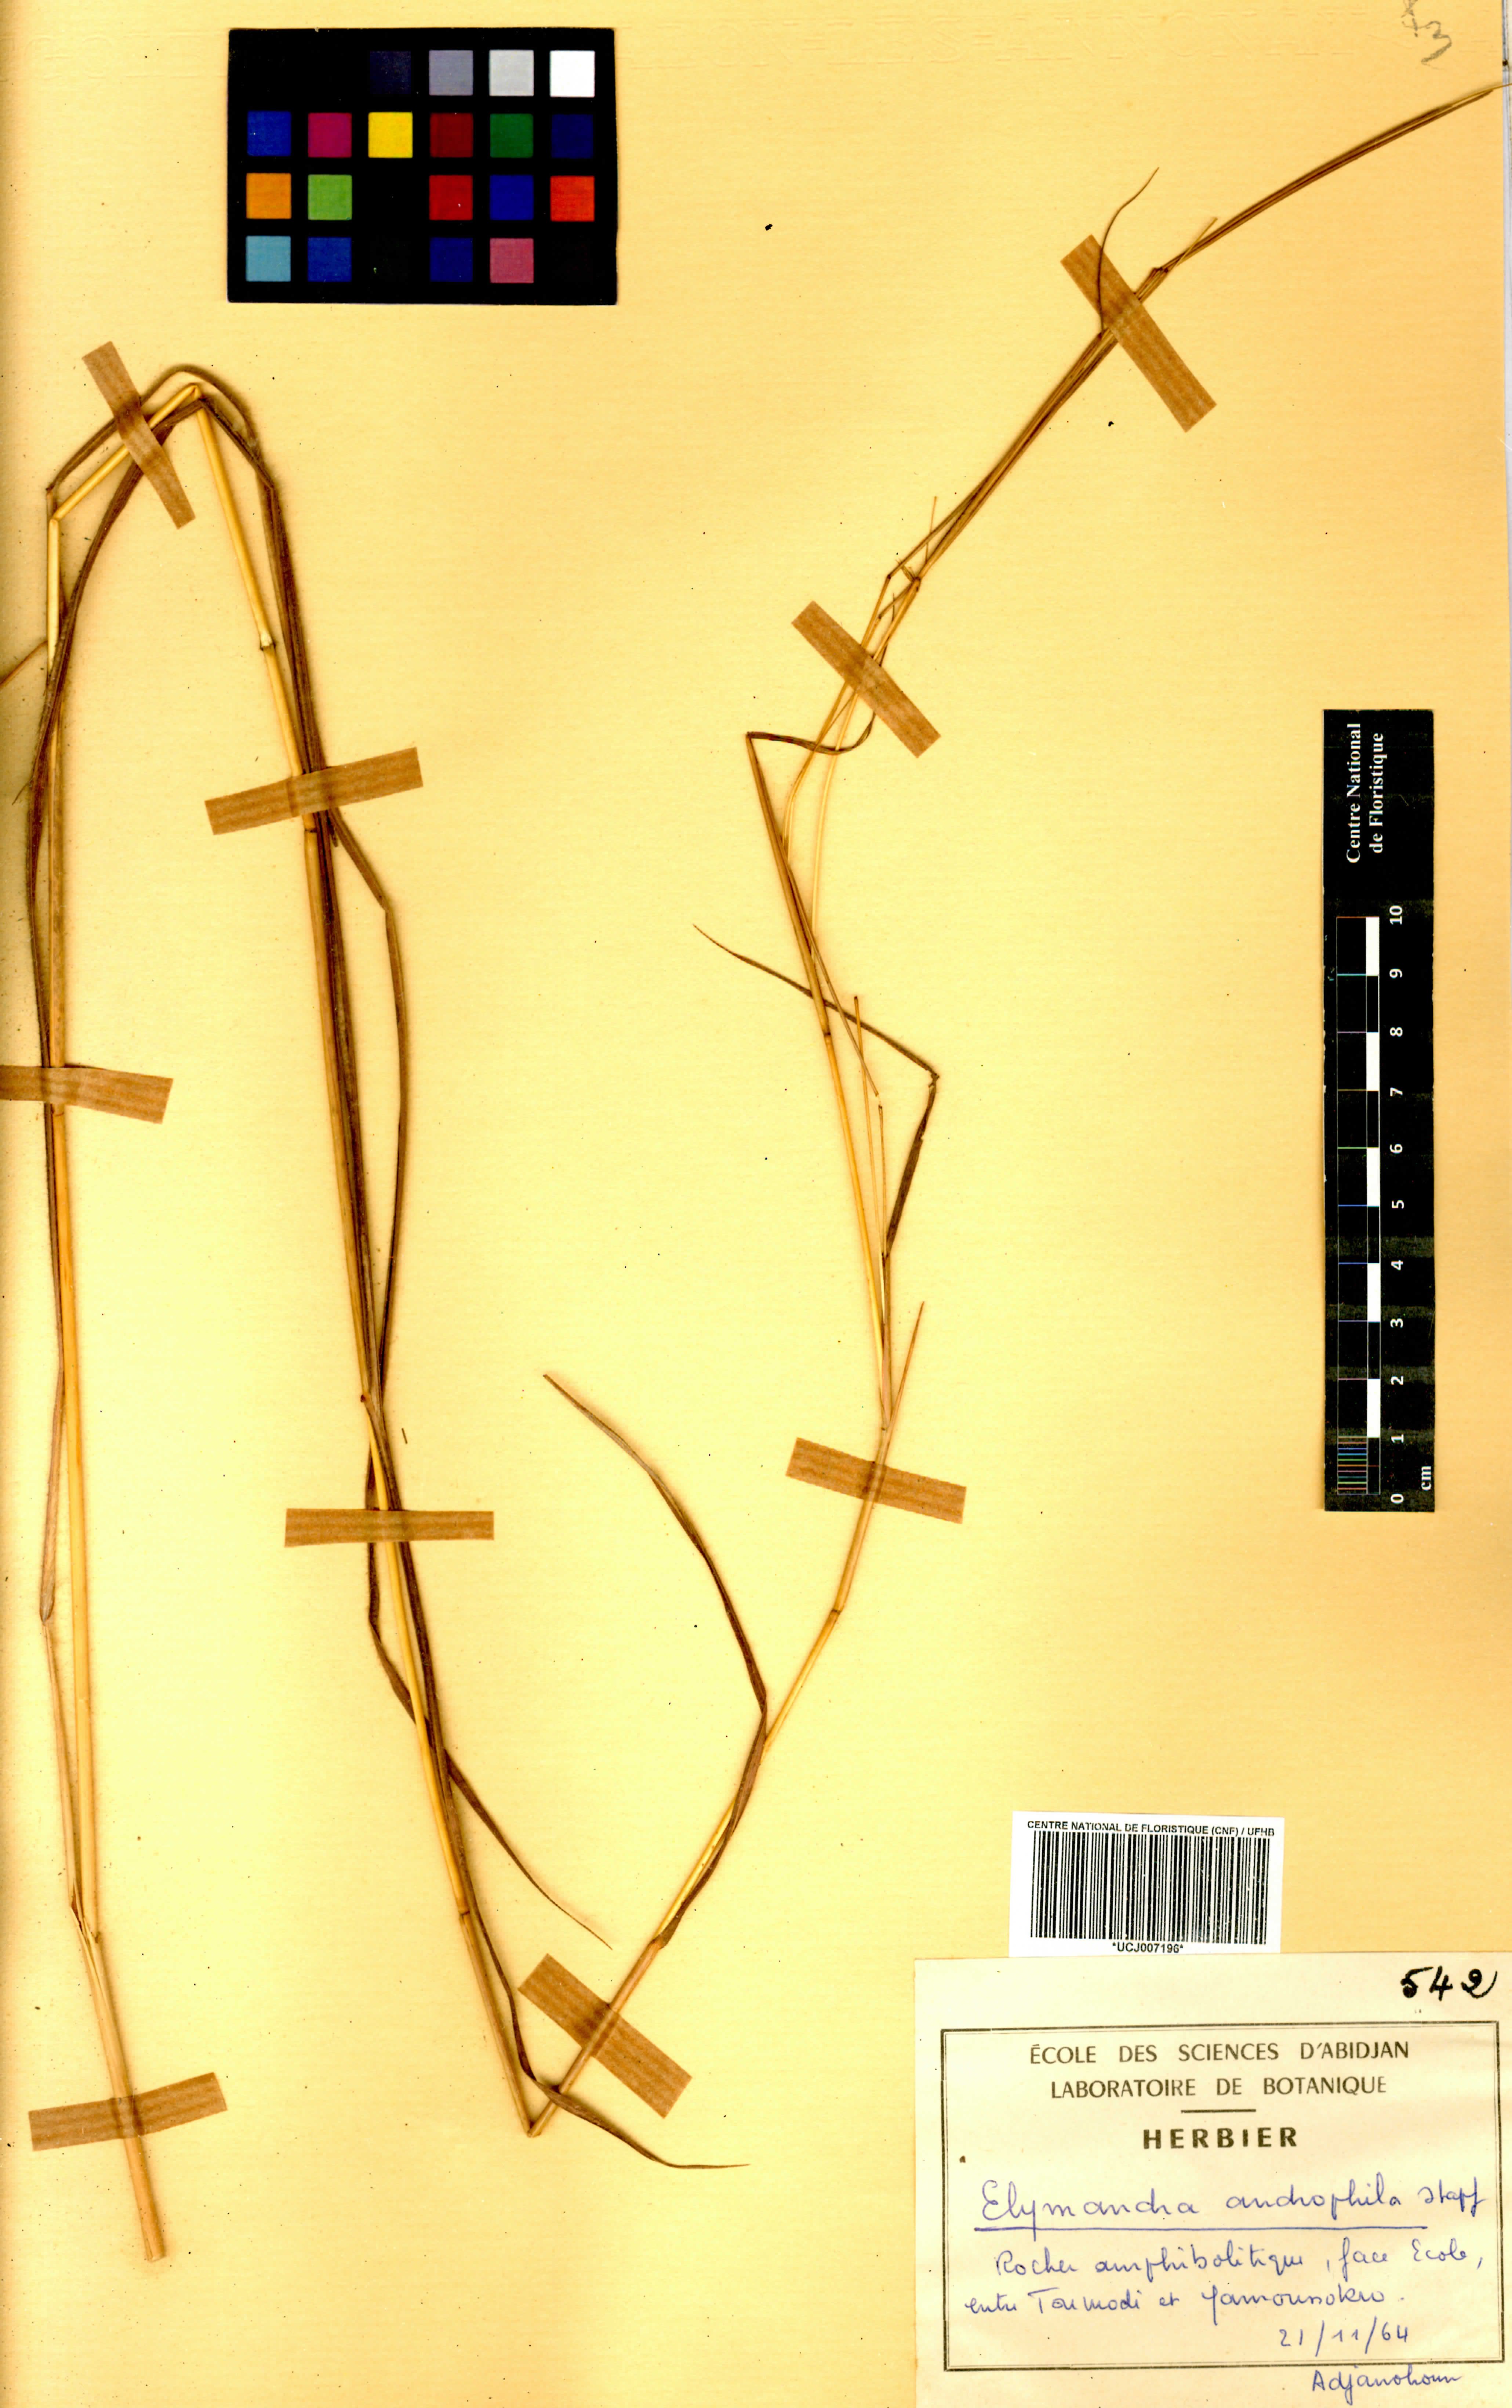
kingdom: Plantae
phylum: Tracheophyta
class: Liliopsida
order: Poales
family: Poaceae
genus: Elymandra
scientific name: Elymandra androphila
